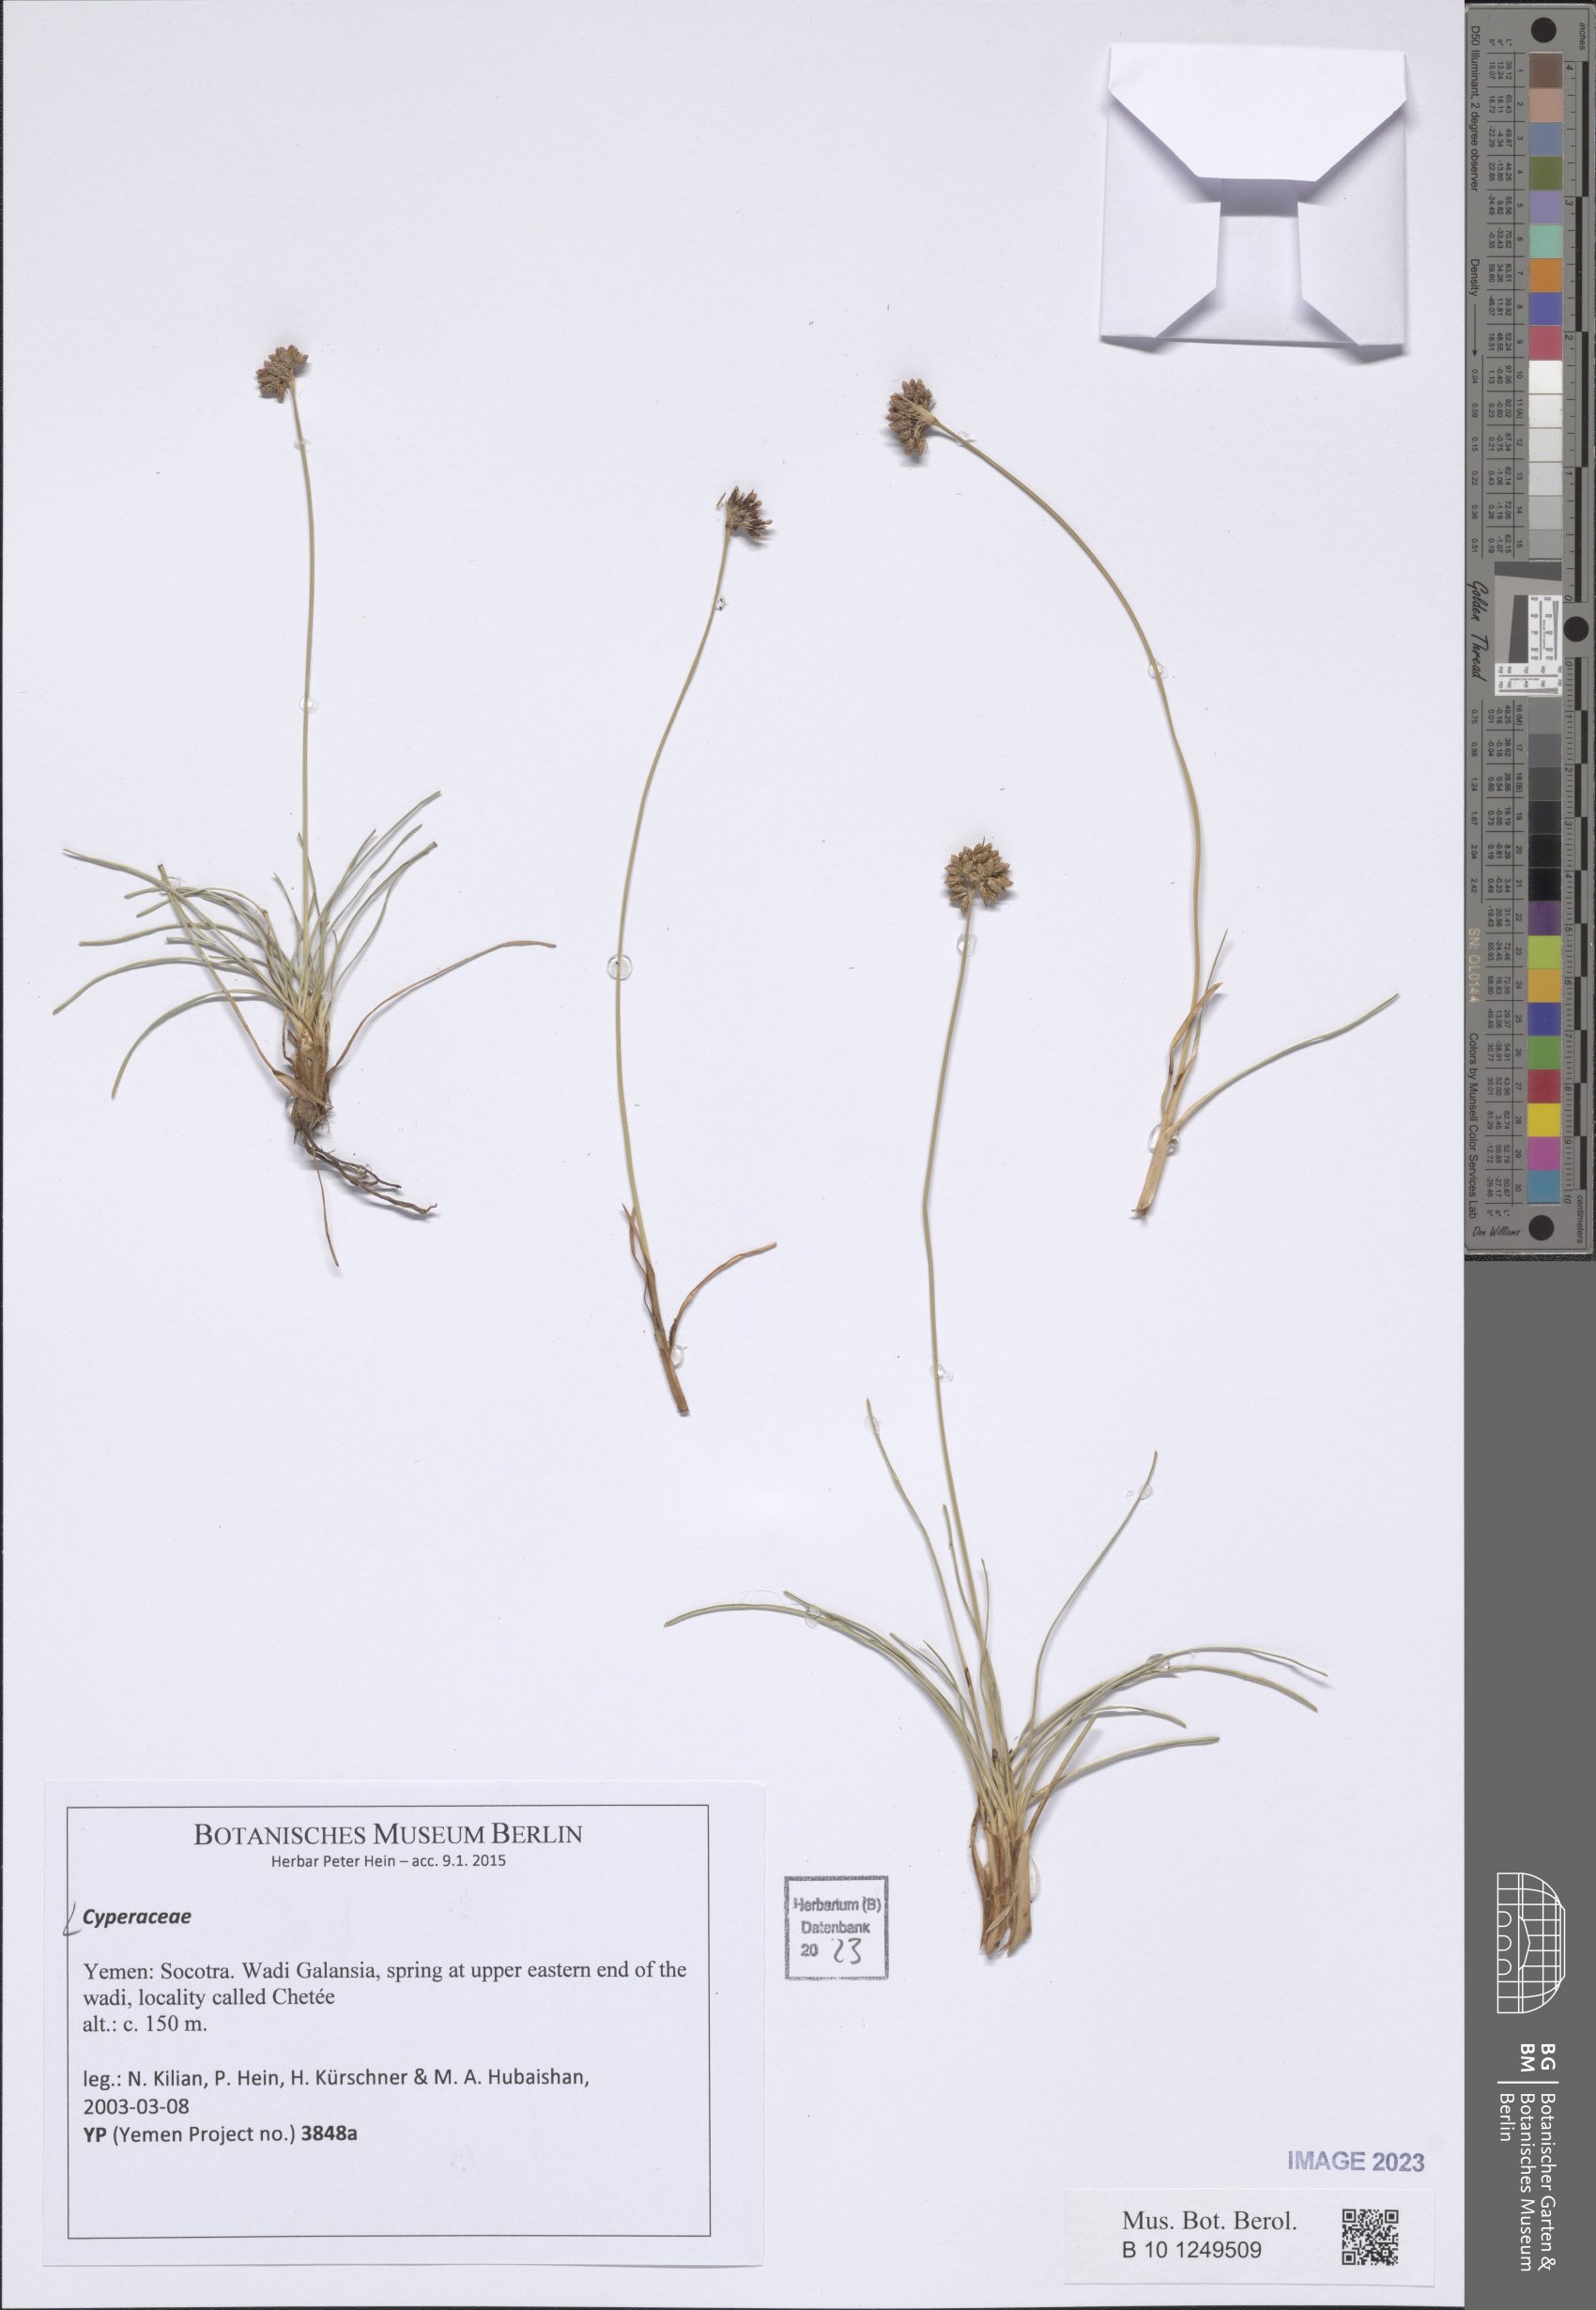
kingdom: Plantae
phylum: Tracheophyta
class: Liliopsida
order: Poales
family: Cyperaceae
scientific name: Cyperaceae
